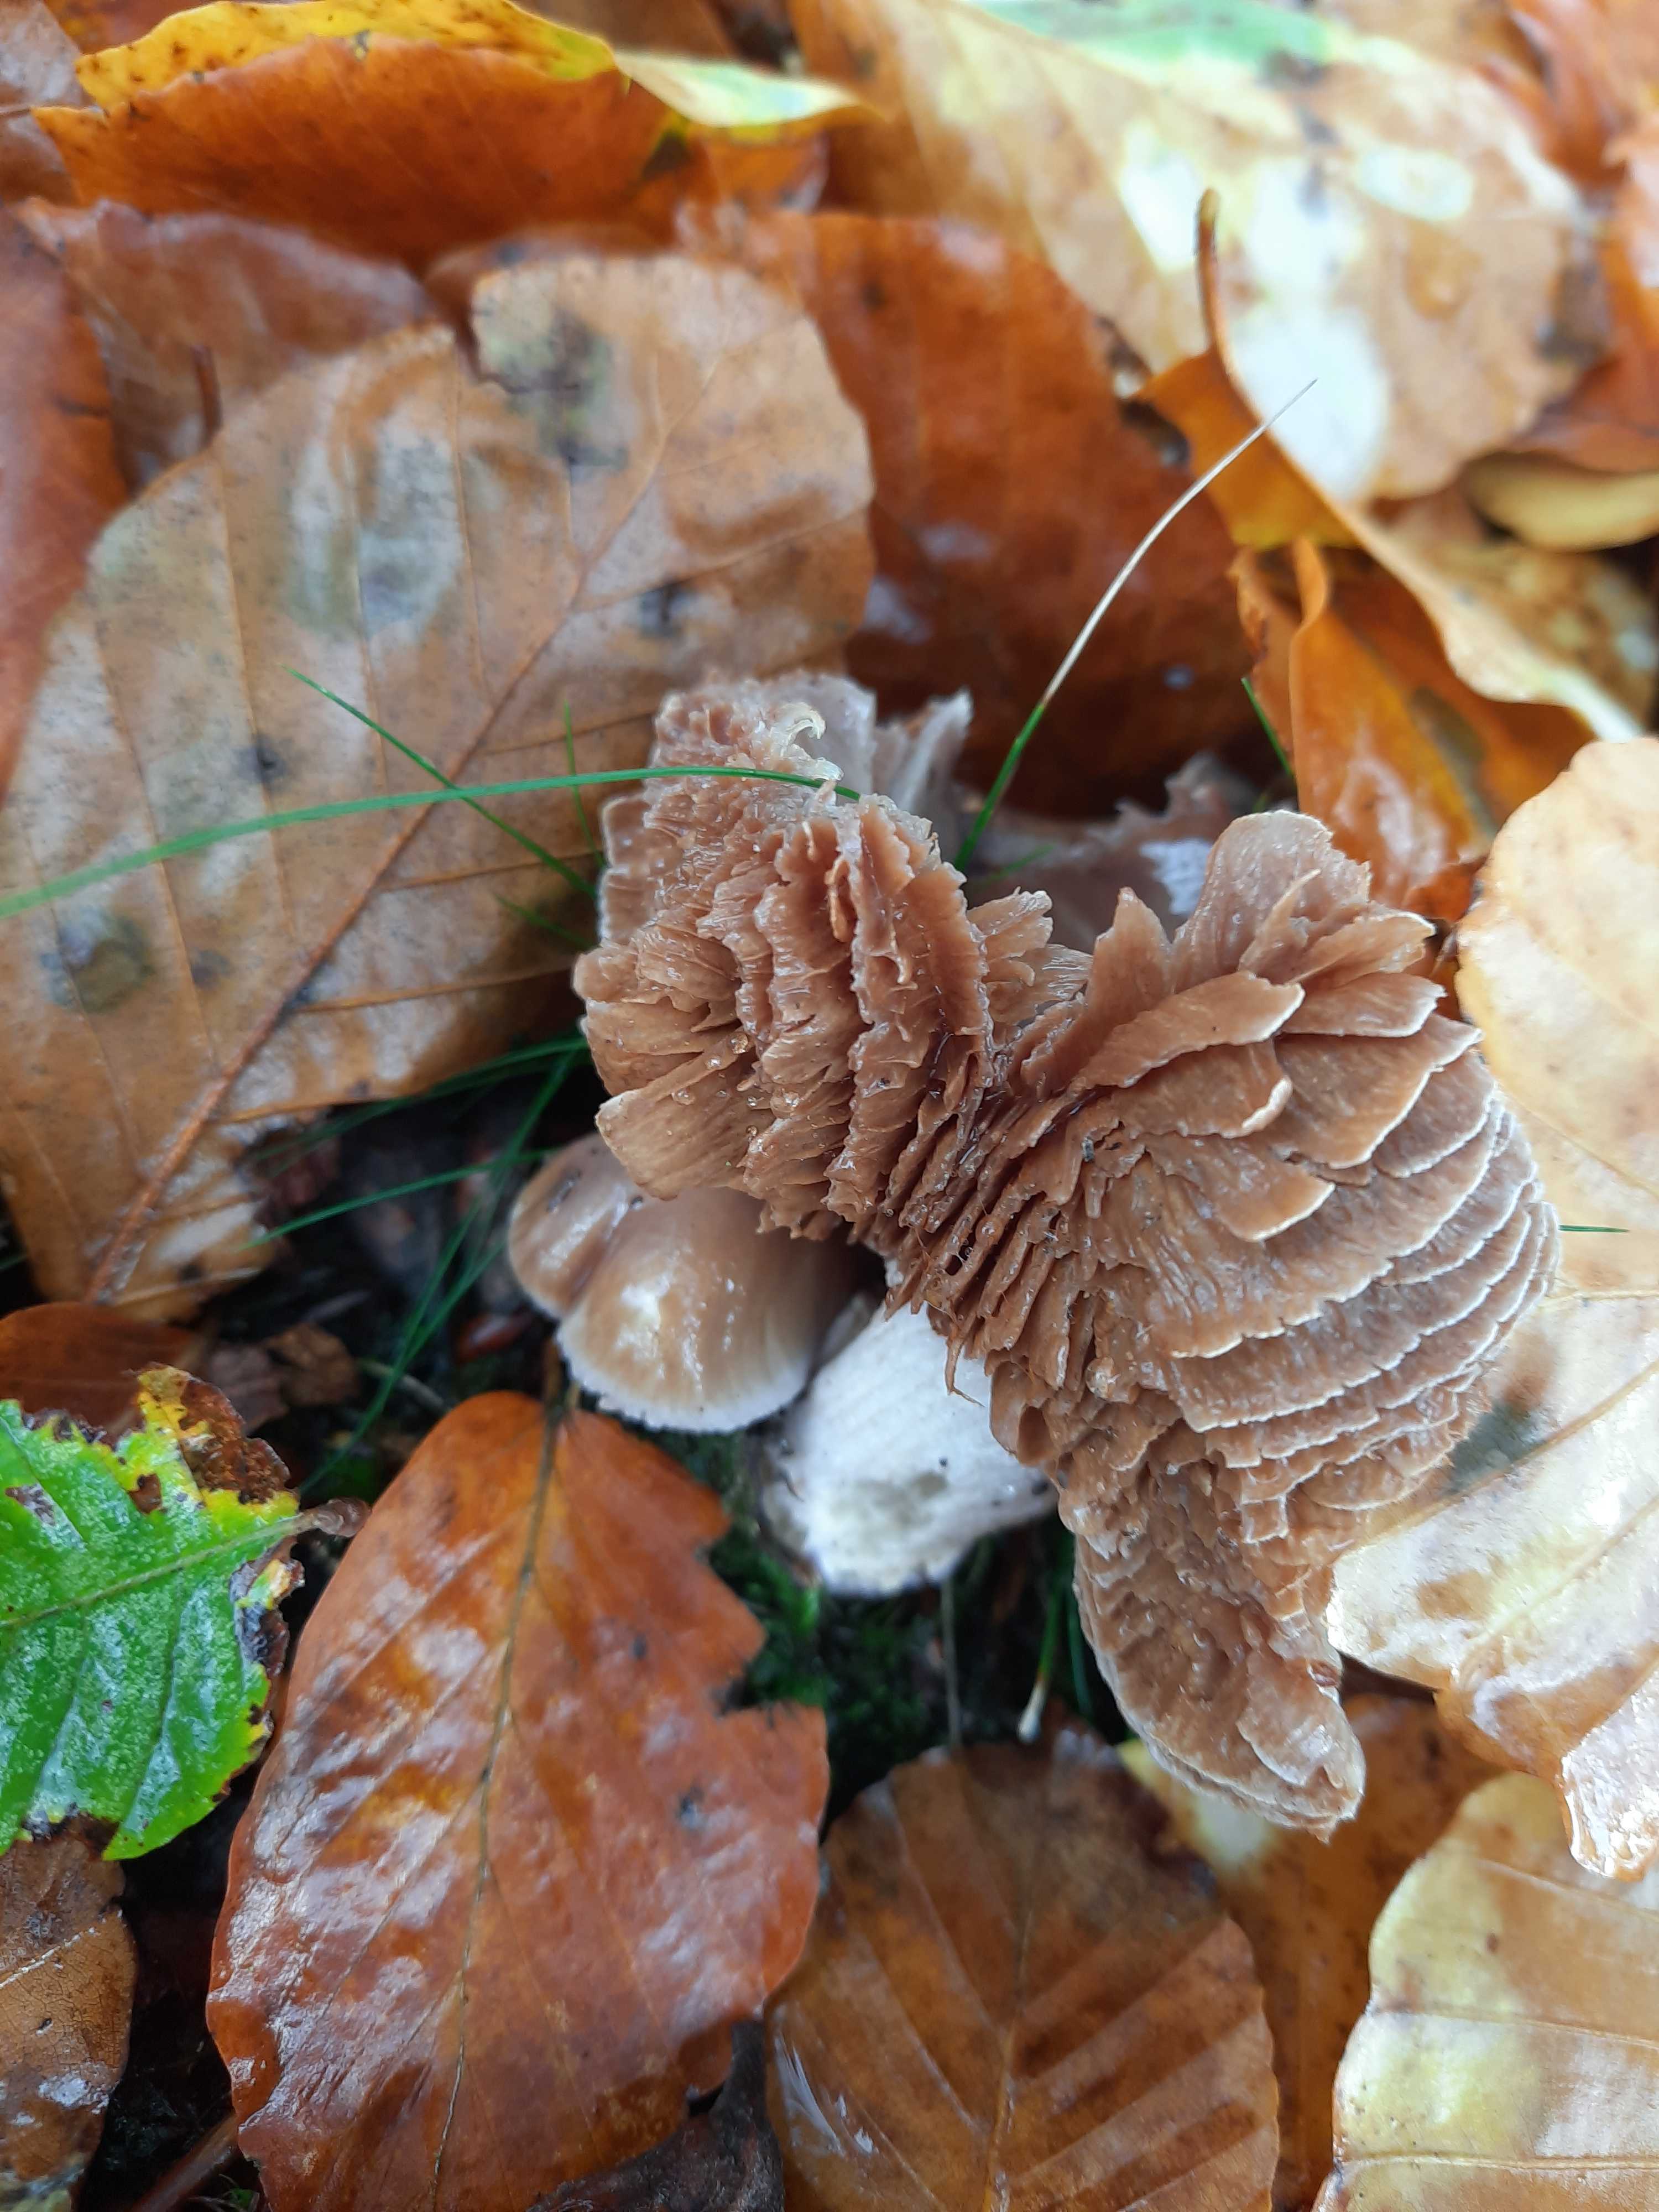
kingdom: Fungi
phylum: Basidiomycota
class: Agaricomycetes
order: Agaricales
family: Cortinariaceae
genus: Cortinarius
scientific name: Cortinarius elatior
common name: høj slørhat
